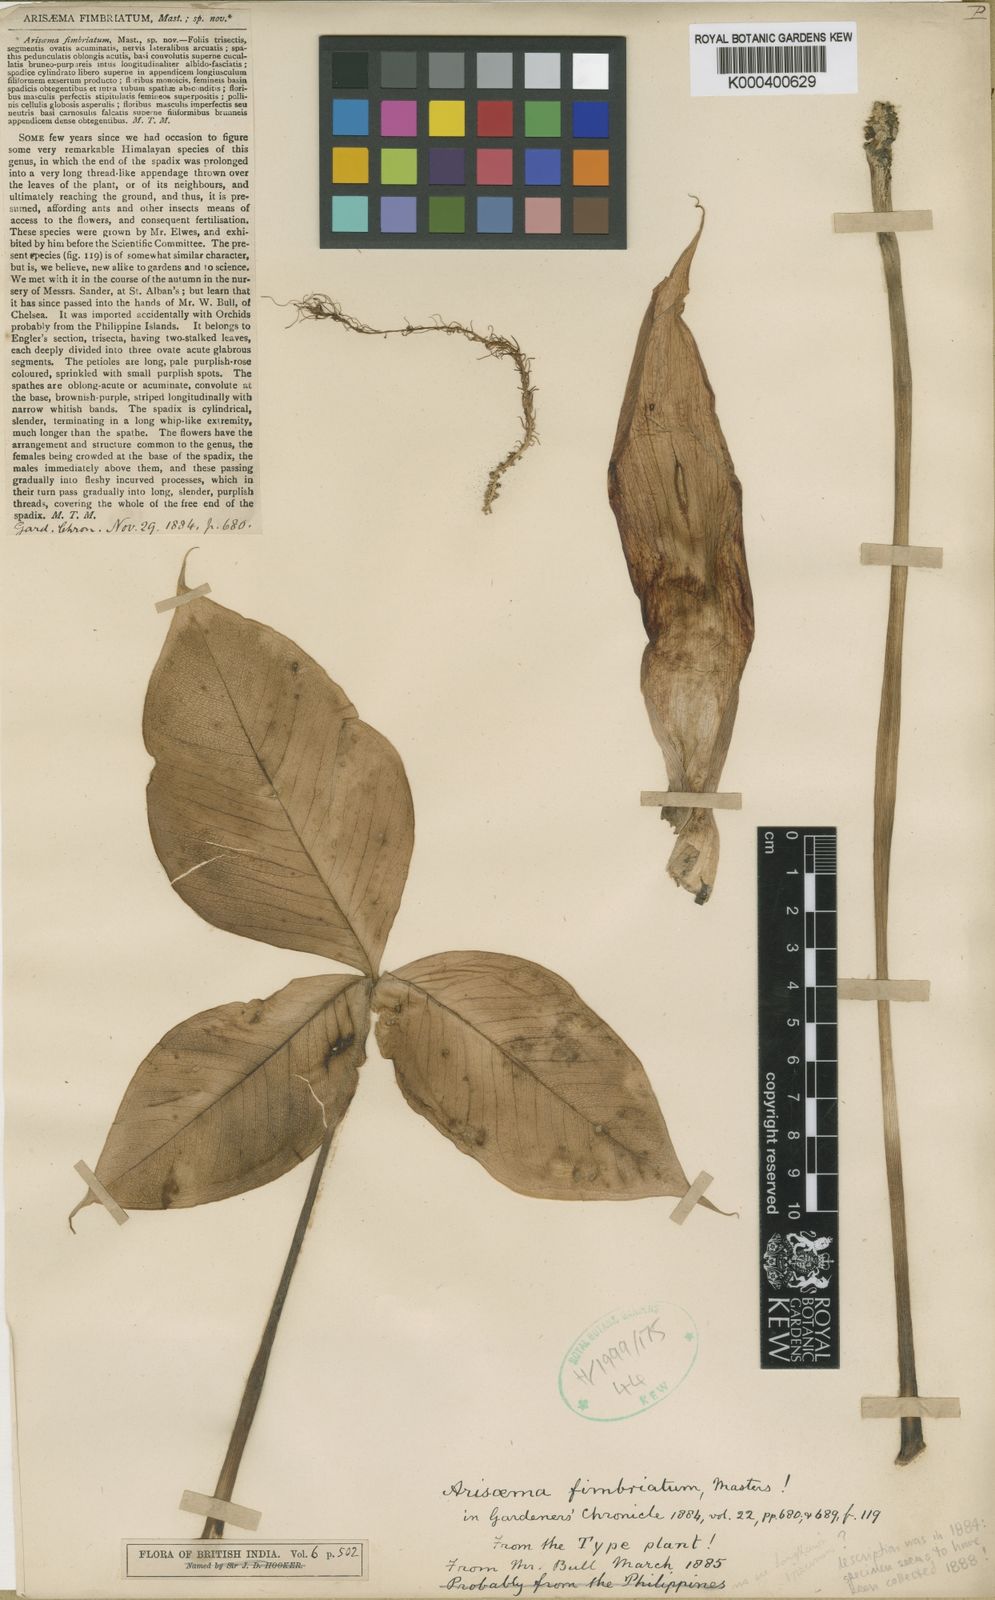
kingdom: Plantae
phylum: Tracheophyta
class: Liliopsida
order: Alismatales
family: Araceae
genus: Arisaema
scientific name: Arisaema fimbriatum
